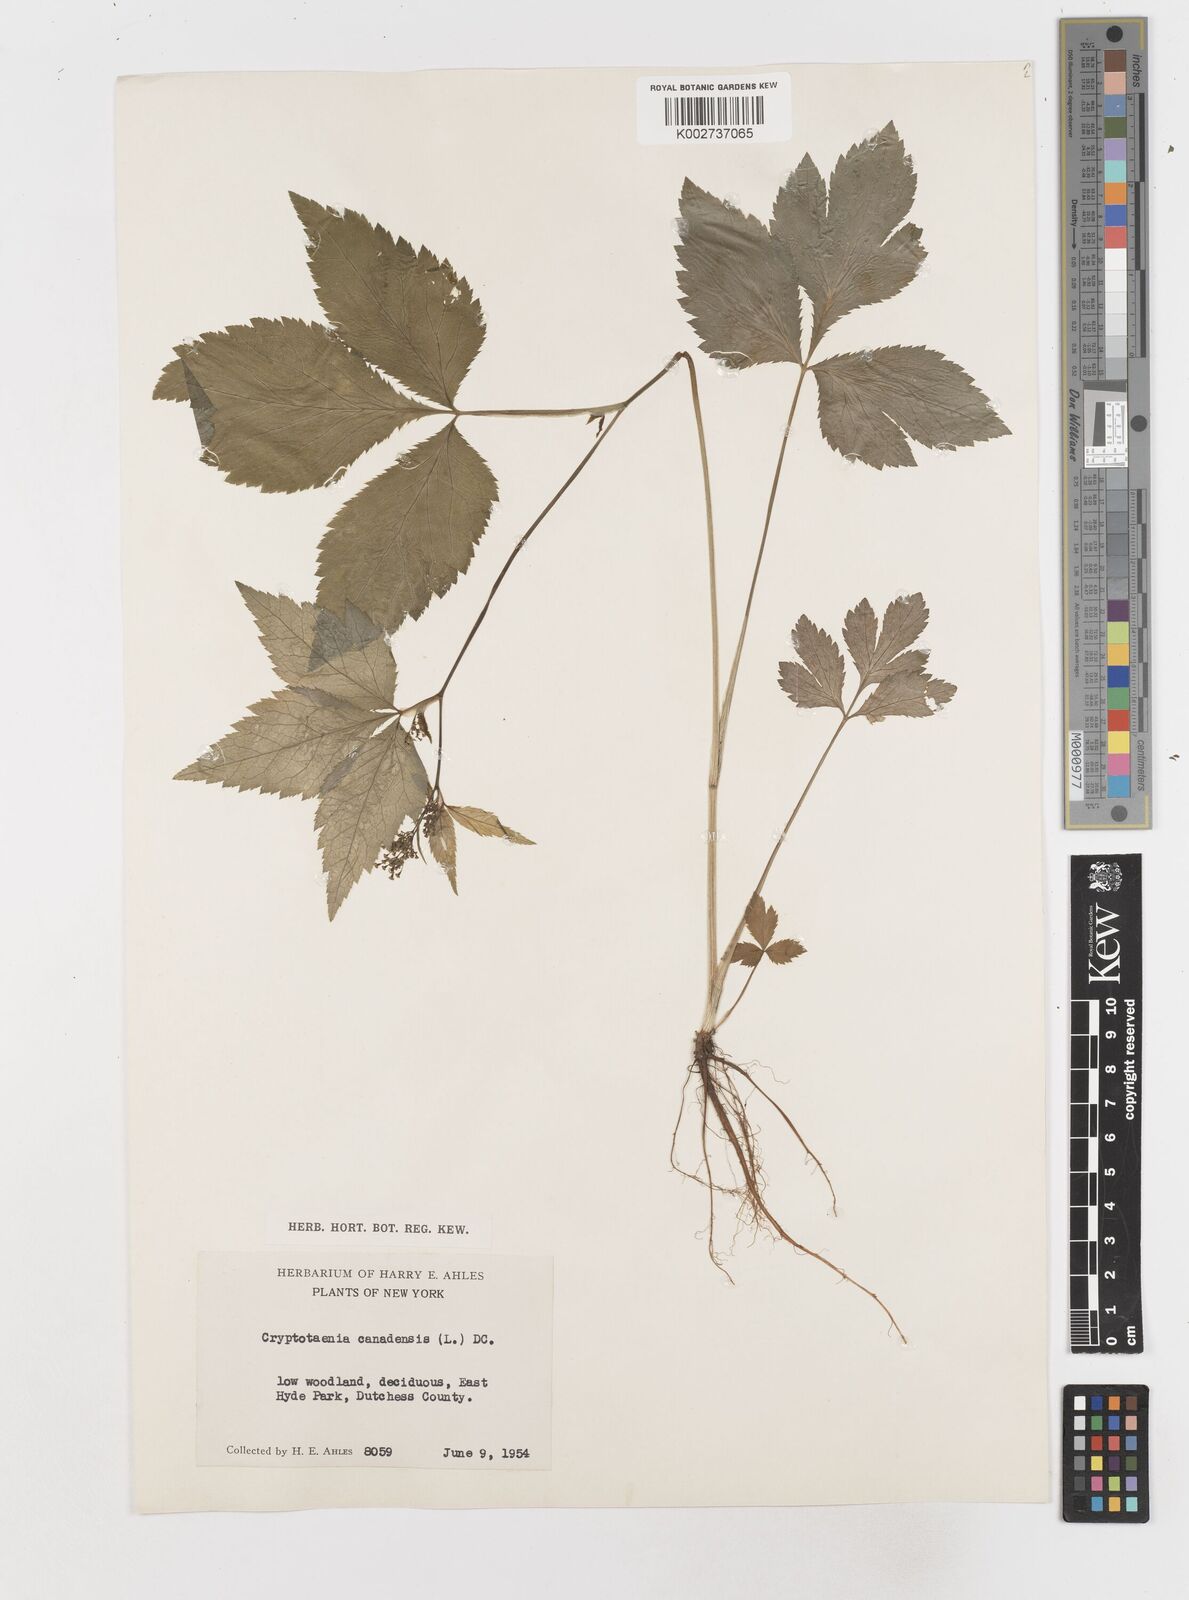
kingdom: Plantae
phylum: Tracheophyta
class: Magnoliopsida
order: Apiales
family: Apiaceae
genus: Cryptotaenia
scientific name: Cryptotaenia canadensis
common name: Honewort
